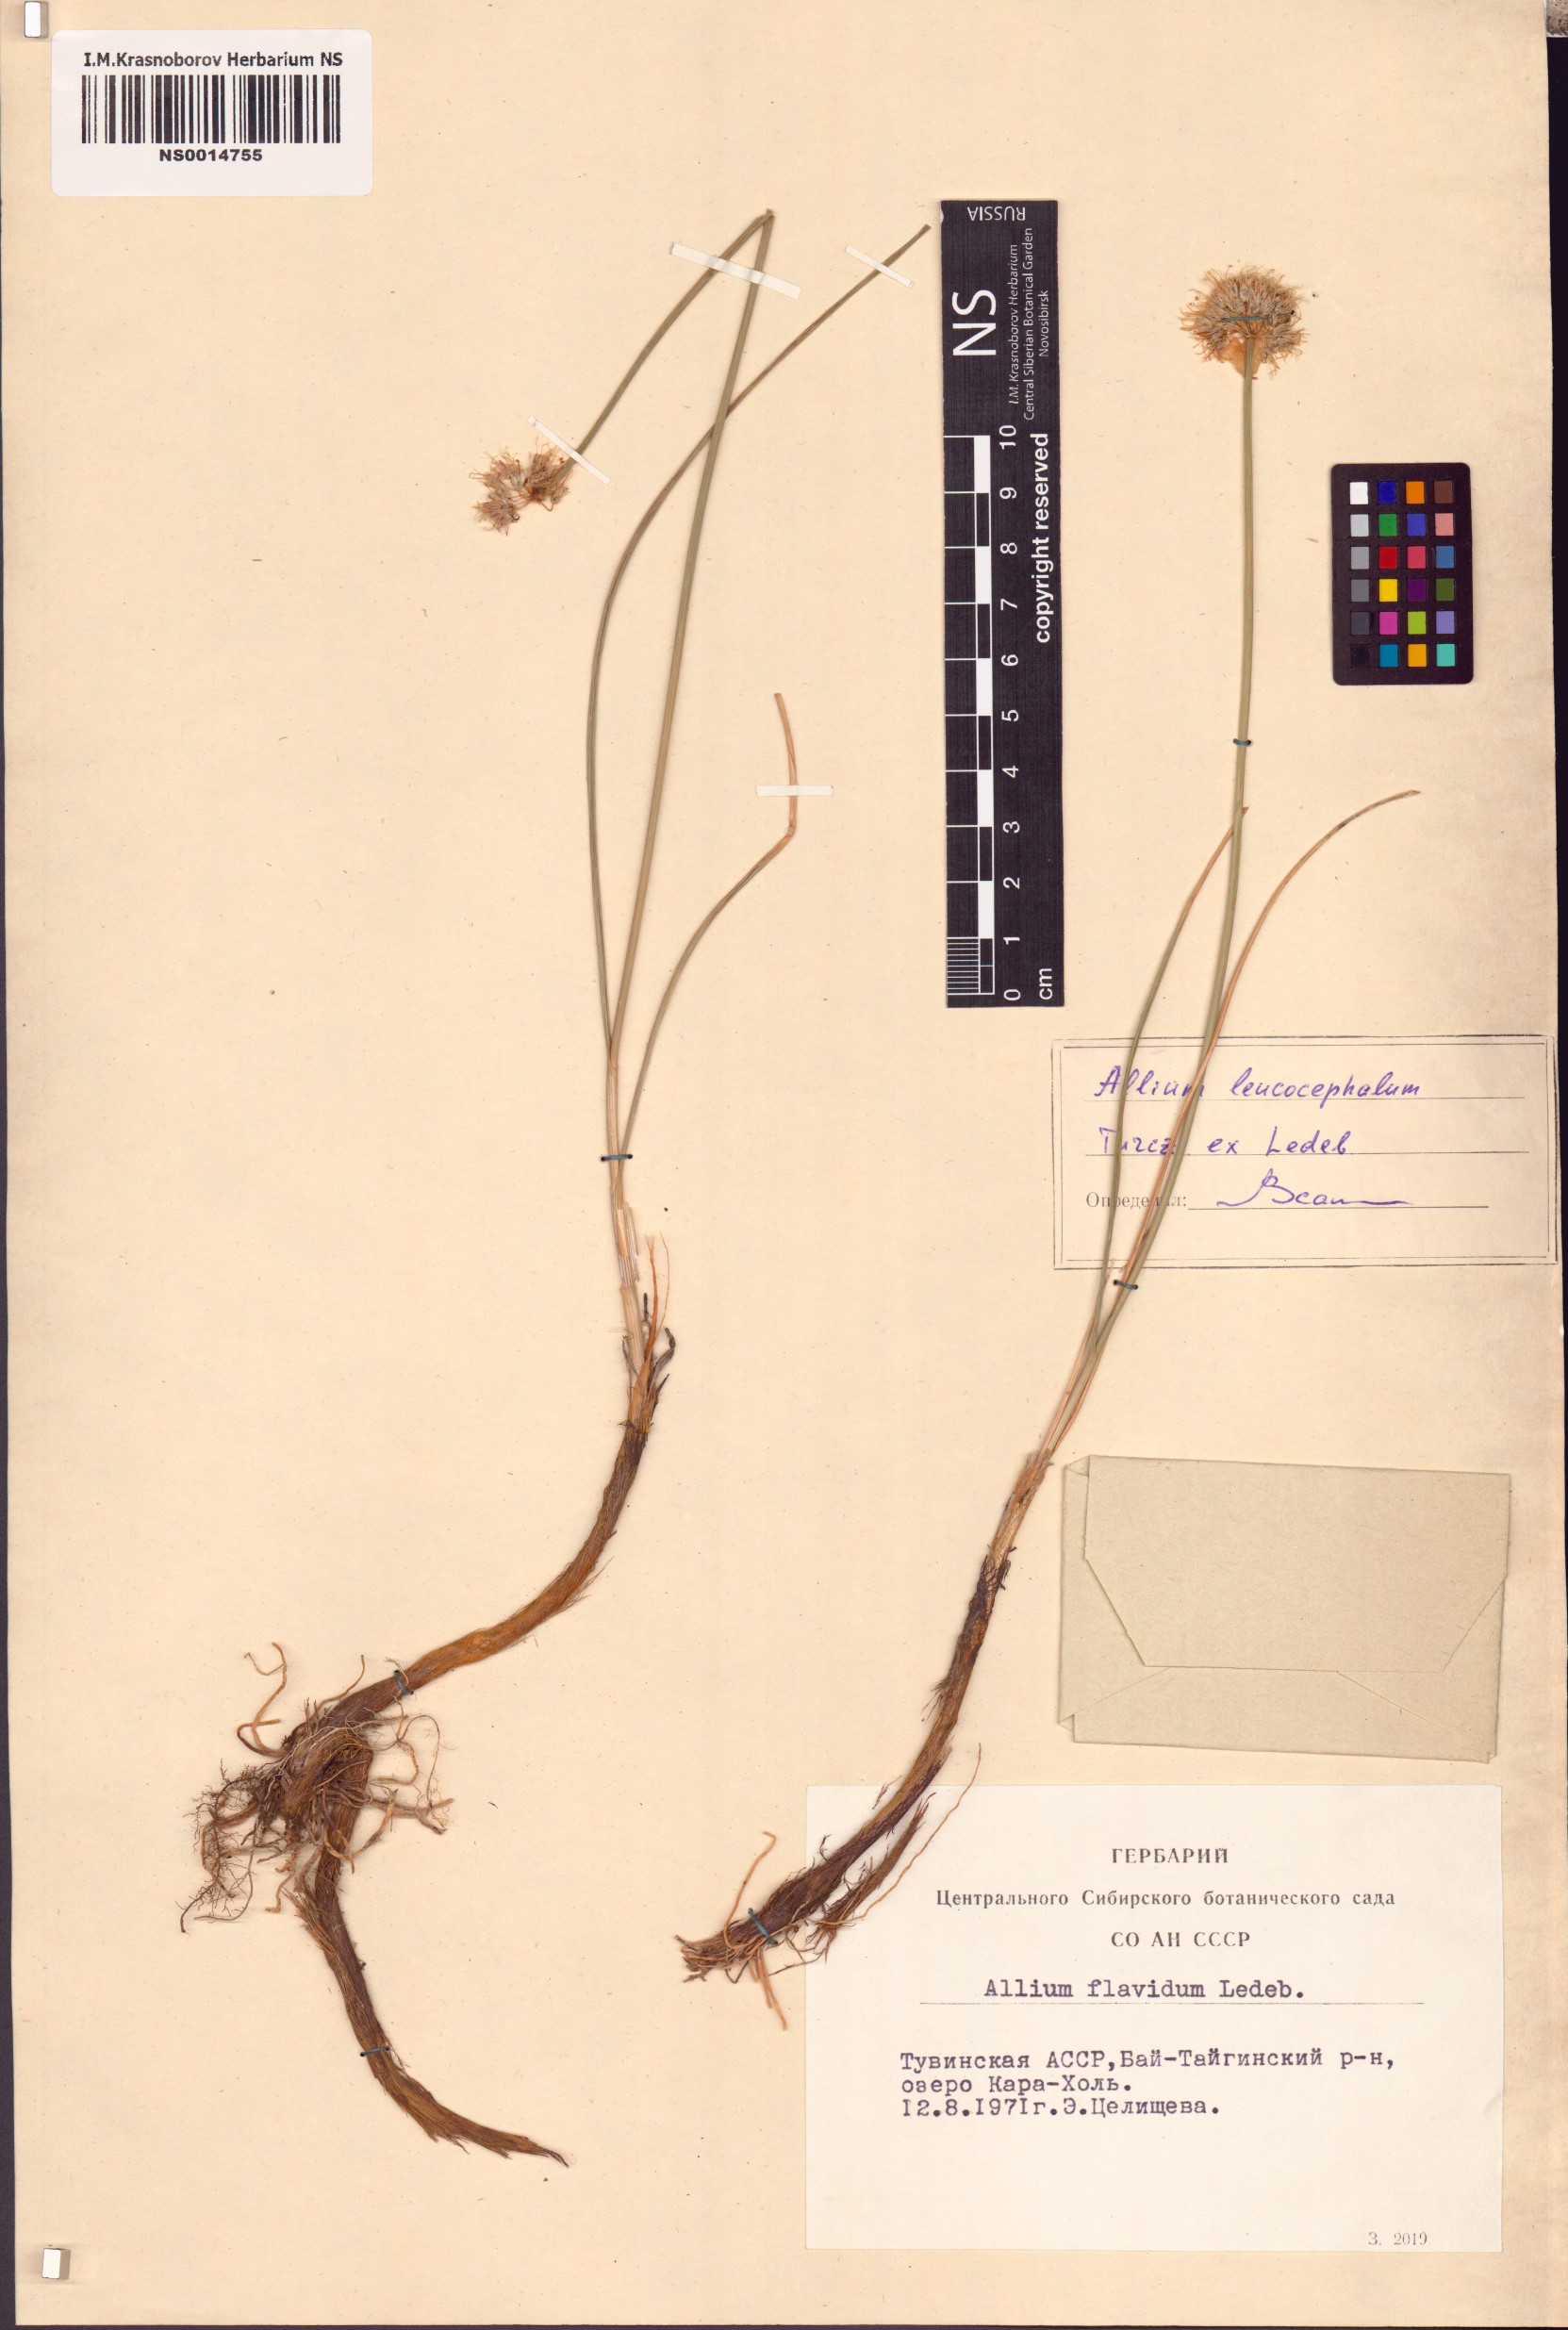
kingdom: Plantae
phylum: Tracheophyta
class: Liliopsida
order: Asparagales
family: Amaryllidaceae
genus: Allium
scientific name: Allium leucocephalum
